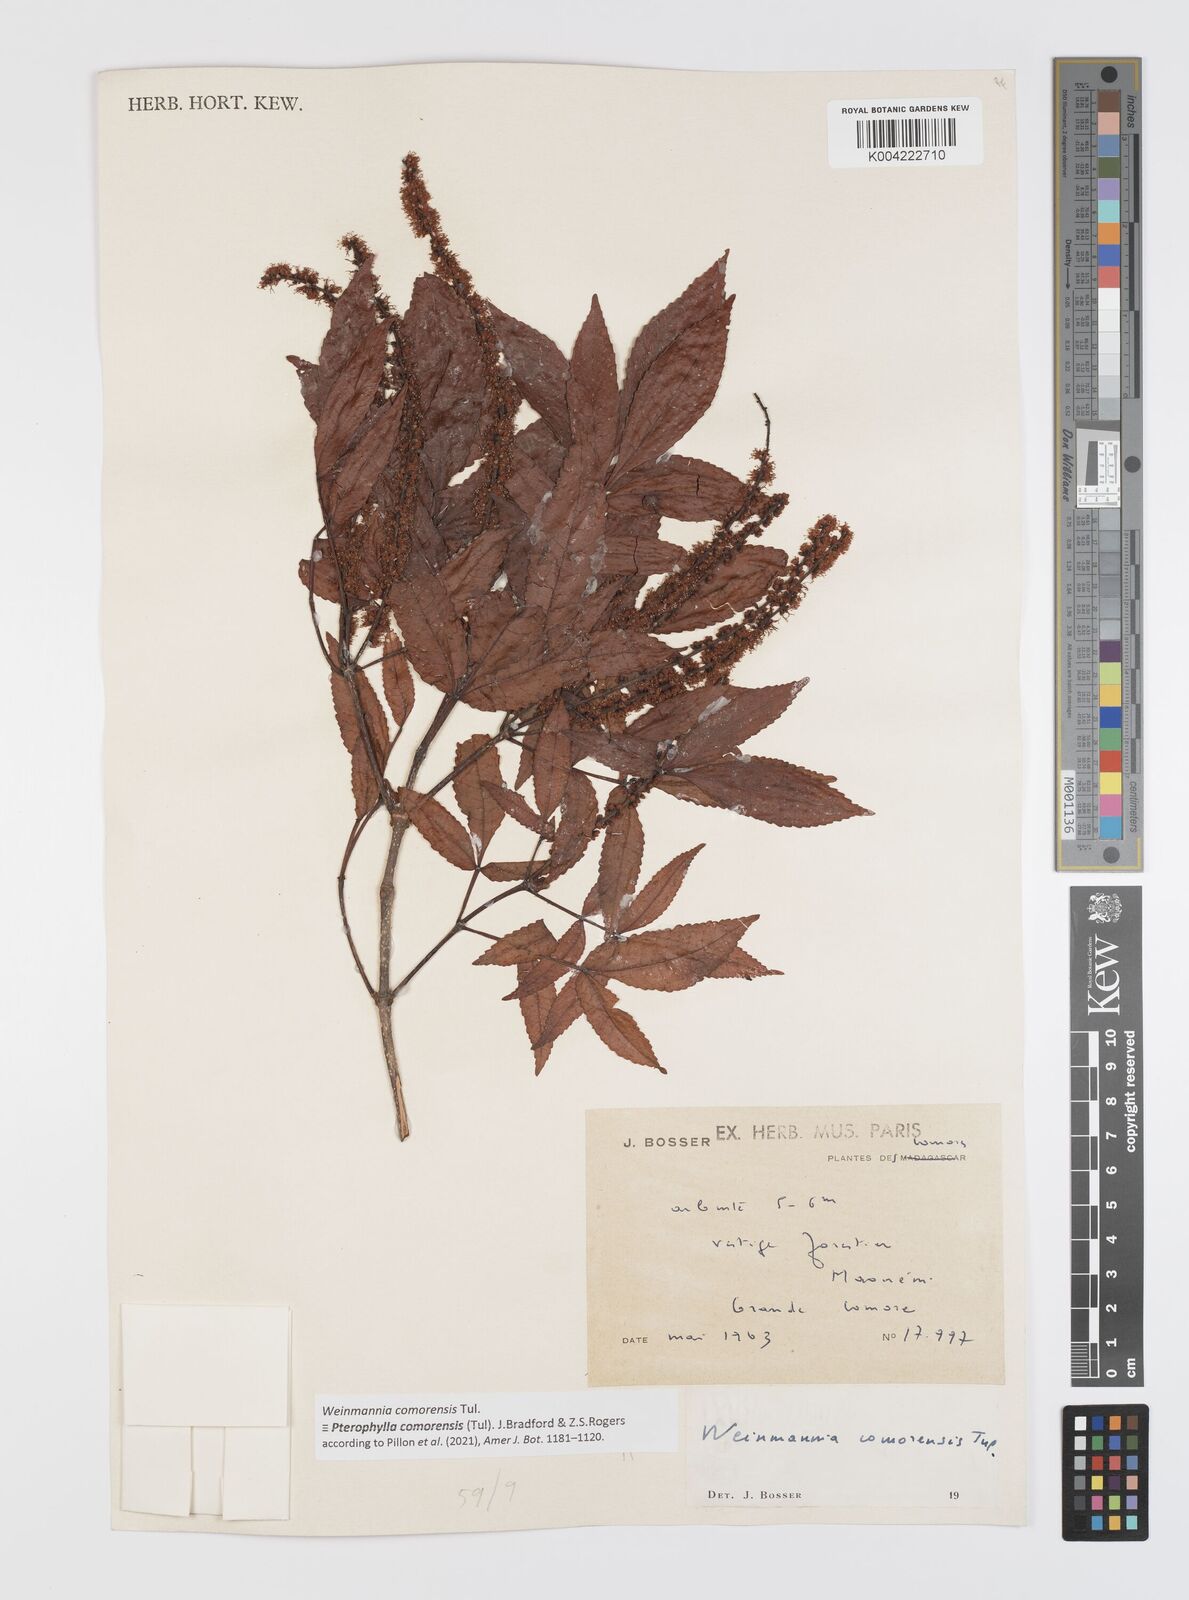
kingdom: Plantae
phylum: Tracheophyta
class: Magnoliopsida
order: Oxalidales
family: Cunoniaceae
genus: Pterophylla
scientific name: Pterophylla
